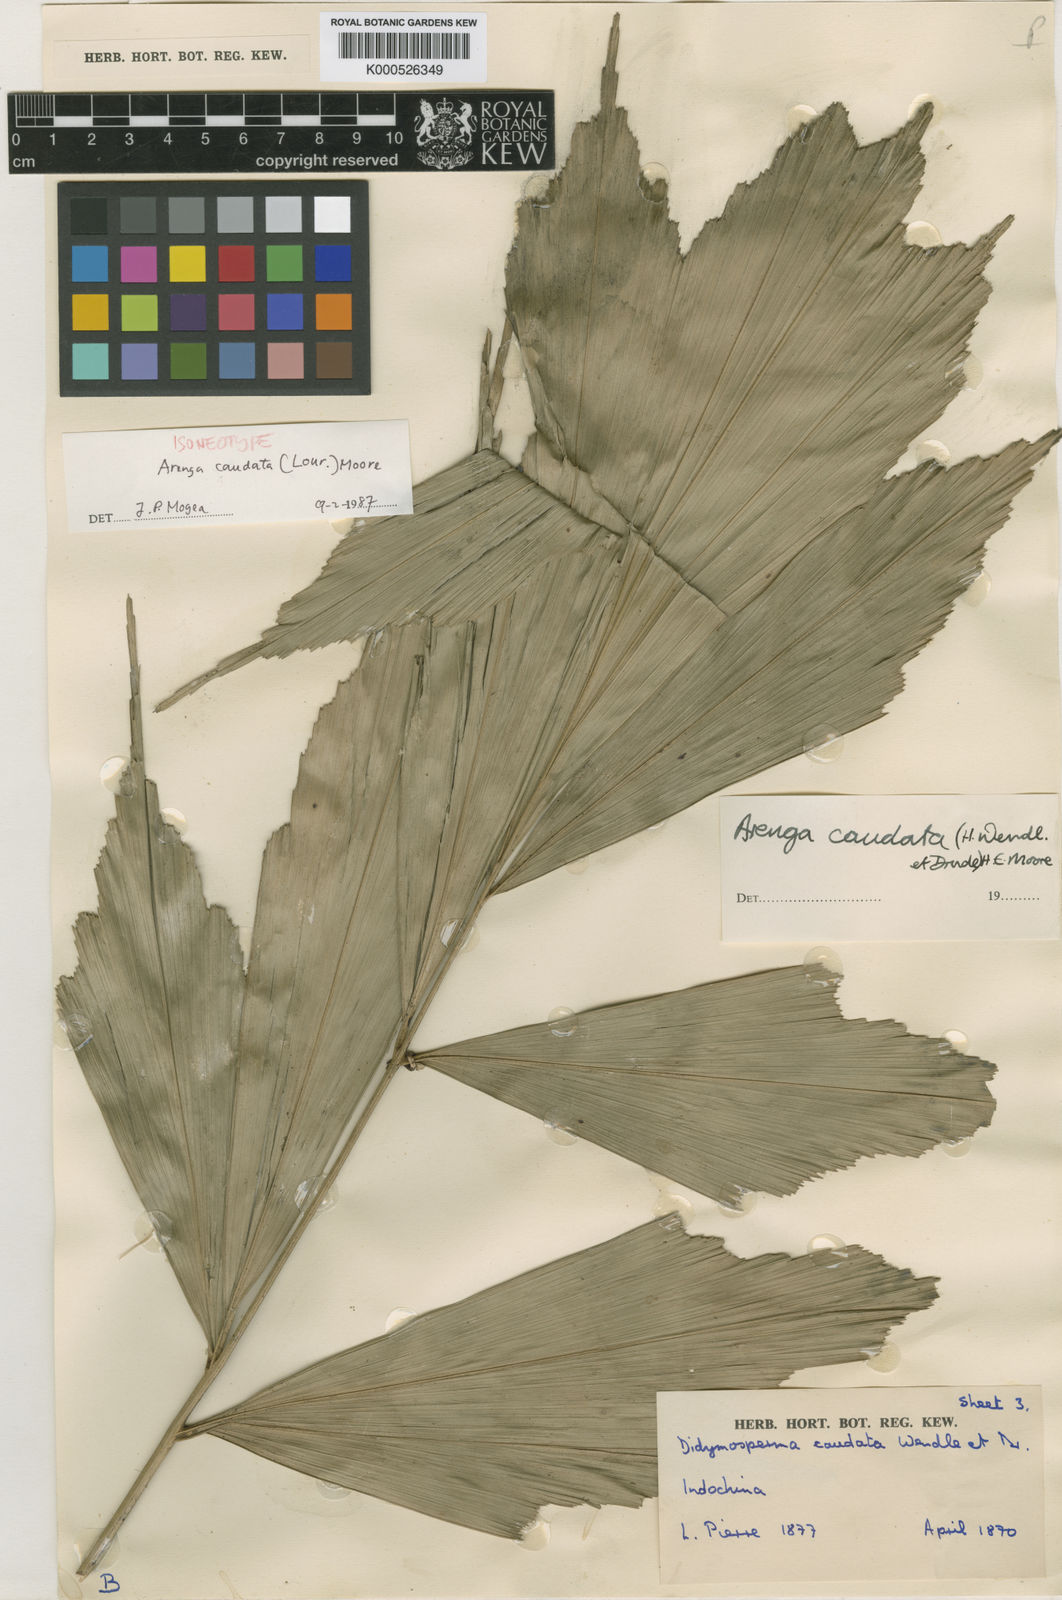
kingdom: Plantae
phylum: Tracheophyta
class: Liliopsida
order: Arecales
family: Arecaceae
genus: Arenga
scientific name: Arenga caudata
